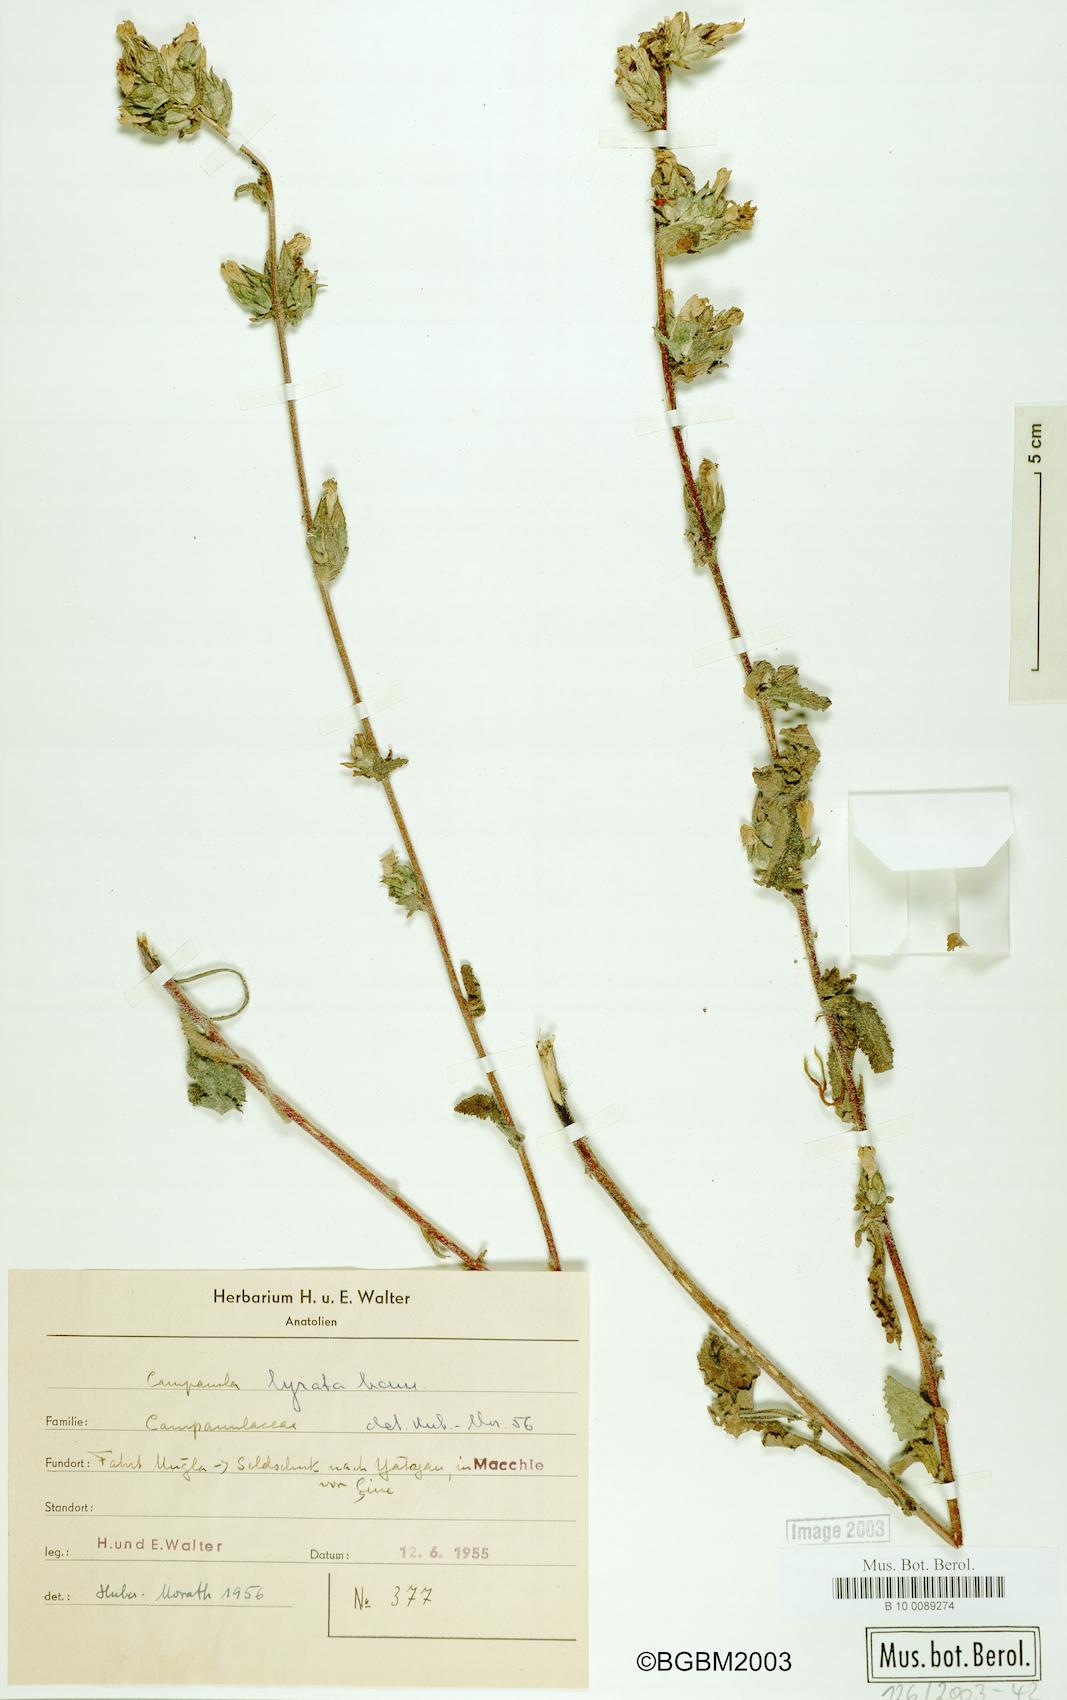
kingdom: Plantae
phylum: Tracheophyta
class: Magnoliopsida
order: Asterales
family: Campanulaceae
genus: Campanula
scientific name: Campanula lyrata
